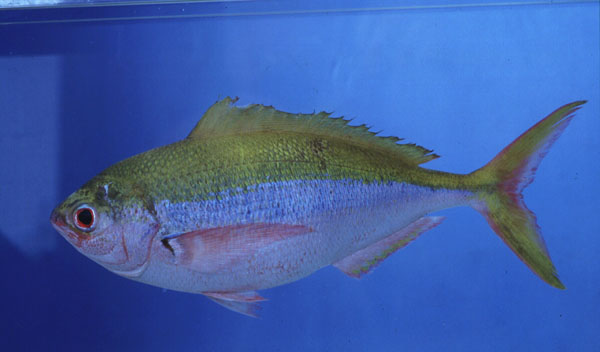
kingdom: Animalia
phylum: Chordata
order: Perciformes
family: Caesionidae
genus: Caesio
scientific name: Caesio xanthonota
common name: Yellowback fusilier
